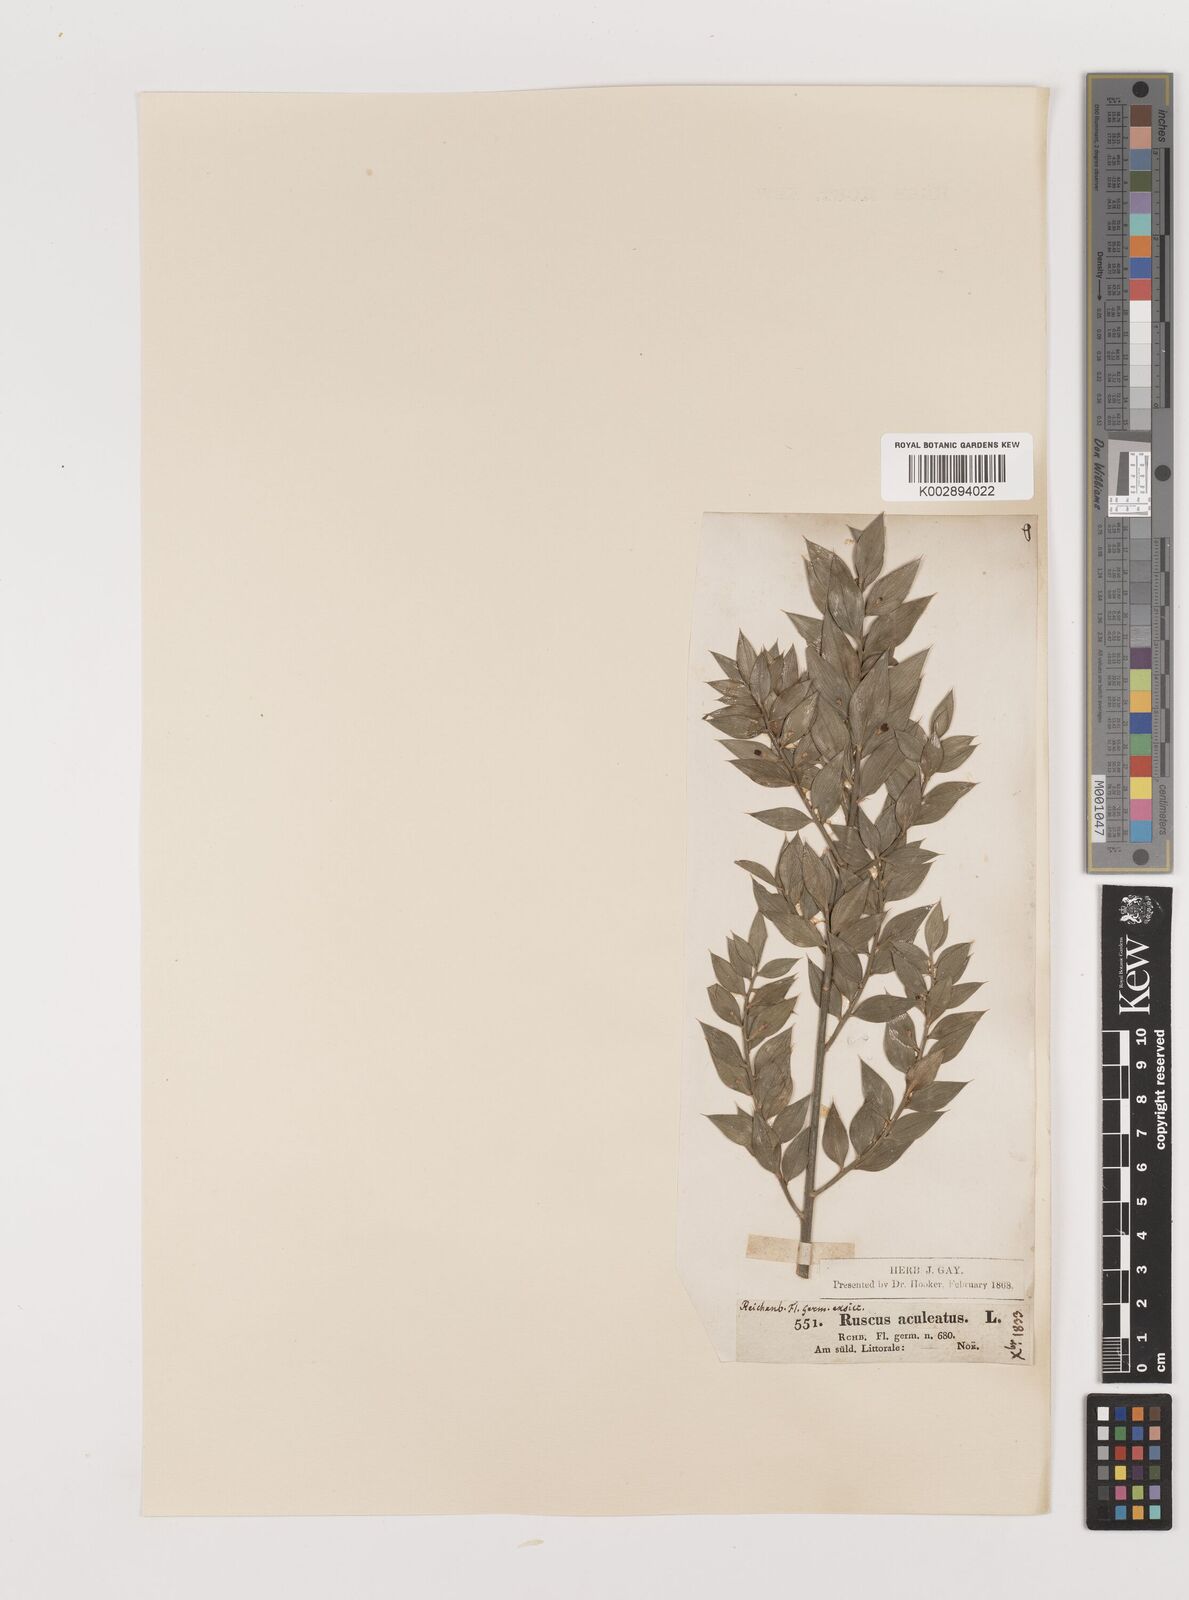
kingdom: Plantae
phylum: Tracheophyta
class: Liliopsida
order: Asparagales
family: Asparagaceae
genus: Ruscus
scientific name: Ruscus aculeatus
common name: Butcher's-broom
